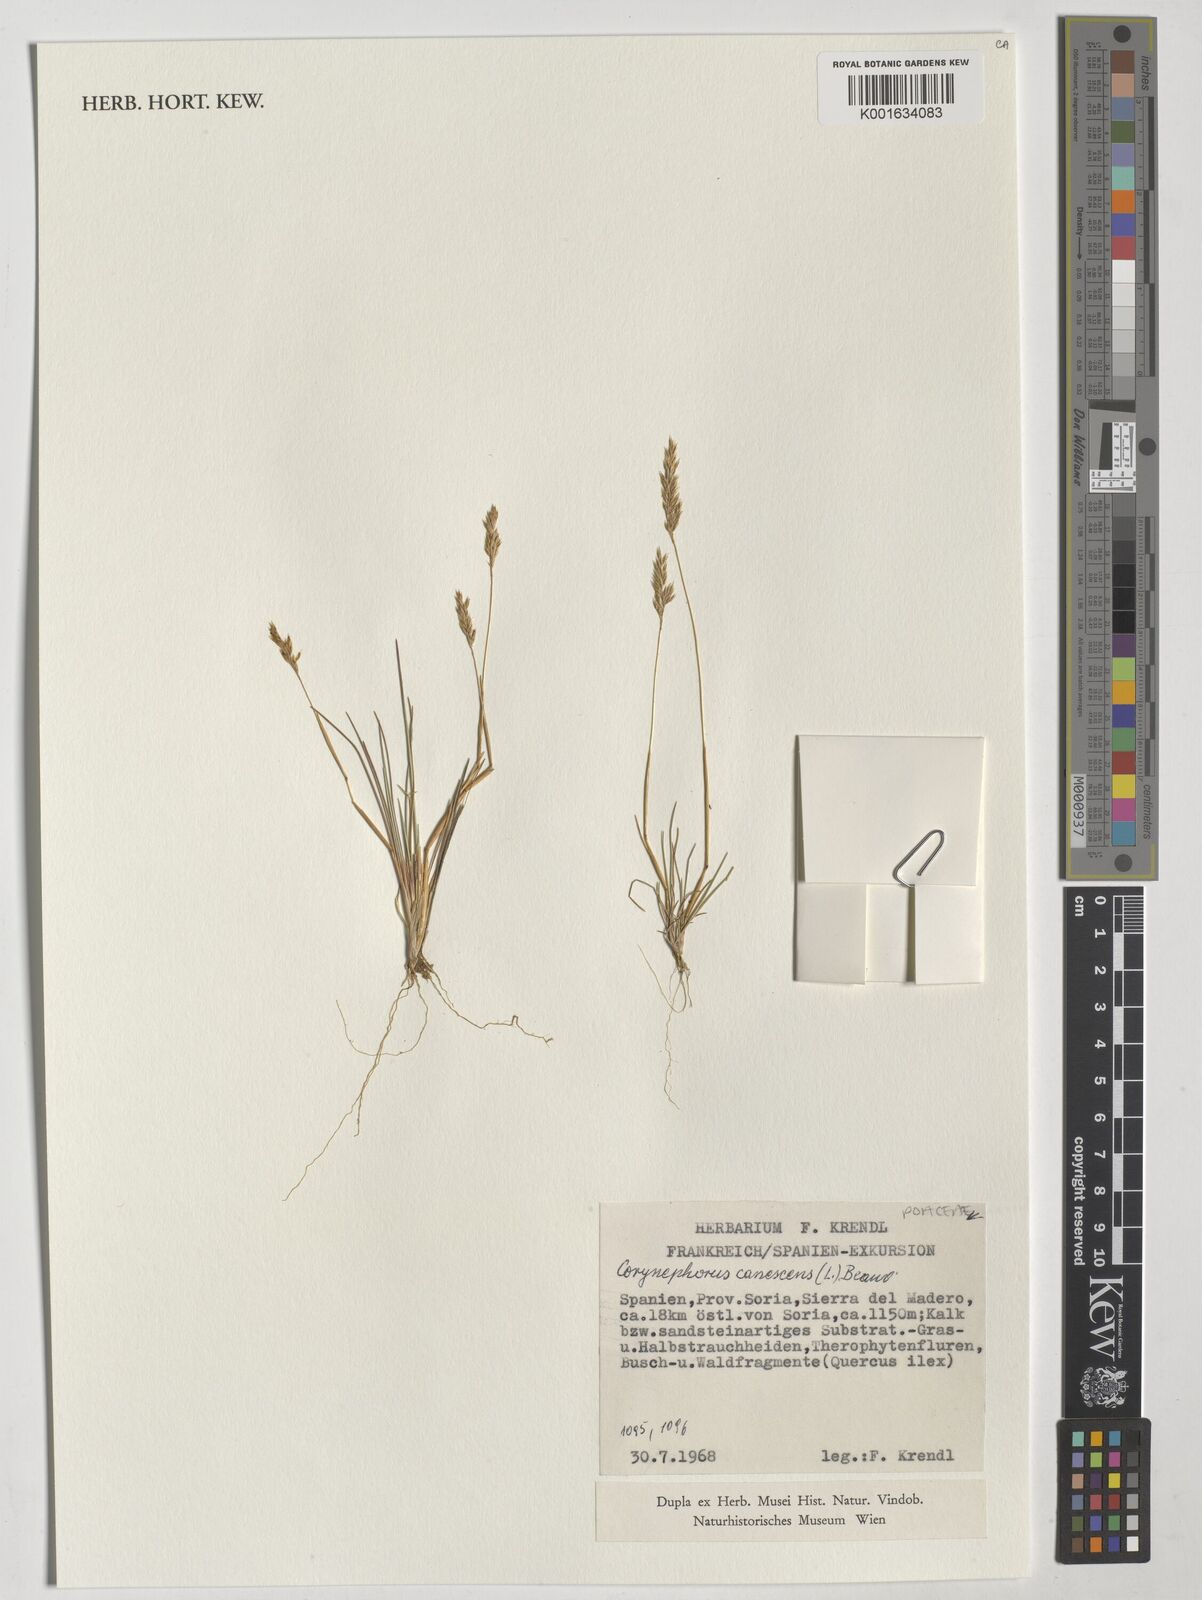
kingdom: Plantae
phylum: Tracheophyta
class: Liliopsida
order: Poales
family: Poaceae
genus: Corynephorus
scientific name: Corynephorus canescens
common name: Grey hair-grass
